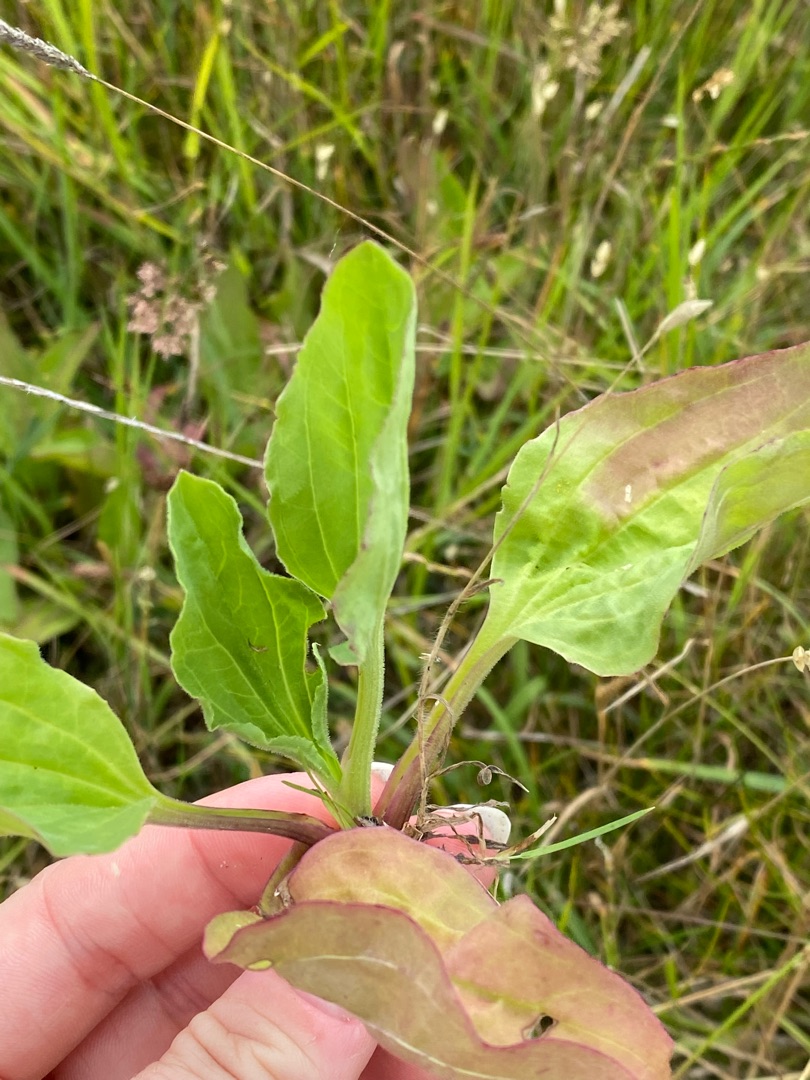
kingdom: Plantae
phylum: Tracheophyta
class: Magnoliopsida
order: Lamiales
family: Plantaginaceae
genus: Plantago
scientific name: Plantago major
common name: Glat vejbred
